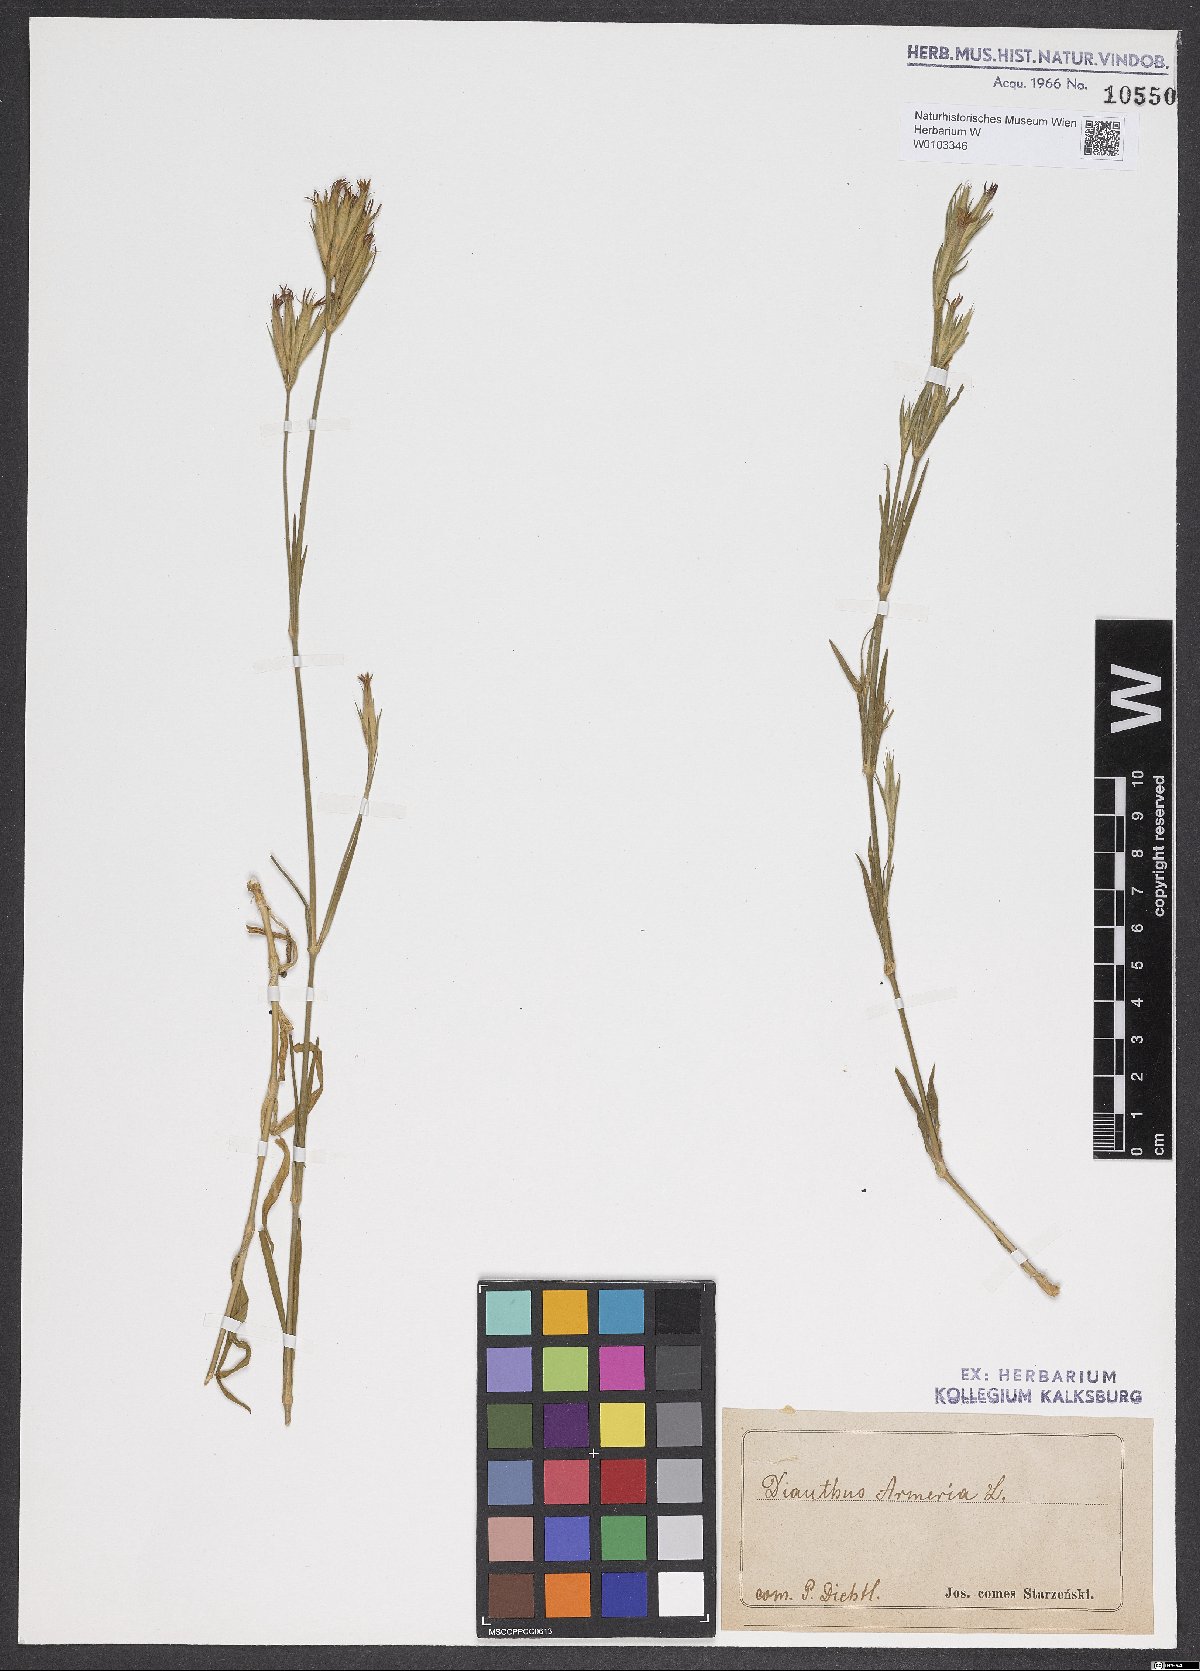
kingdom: Plantae
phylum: Tracheophyta
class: Magnoliopsida
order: Caryophyllales
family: Caryophyllaceae
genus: Dianthus
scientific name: Dianthus armeria
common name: Deptford pink
